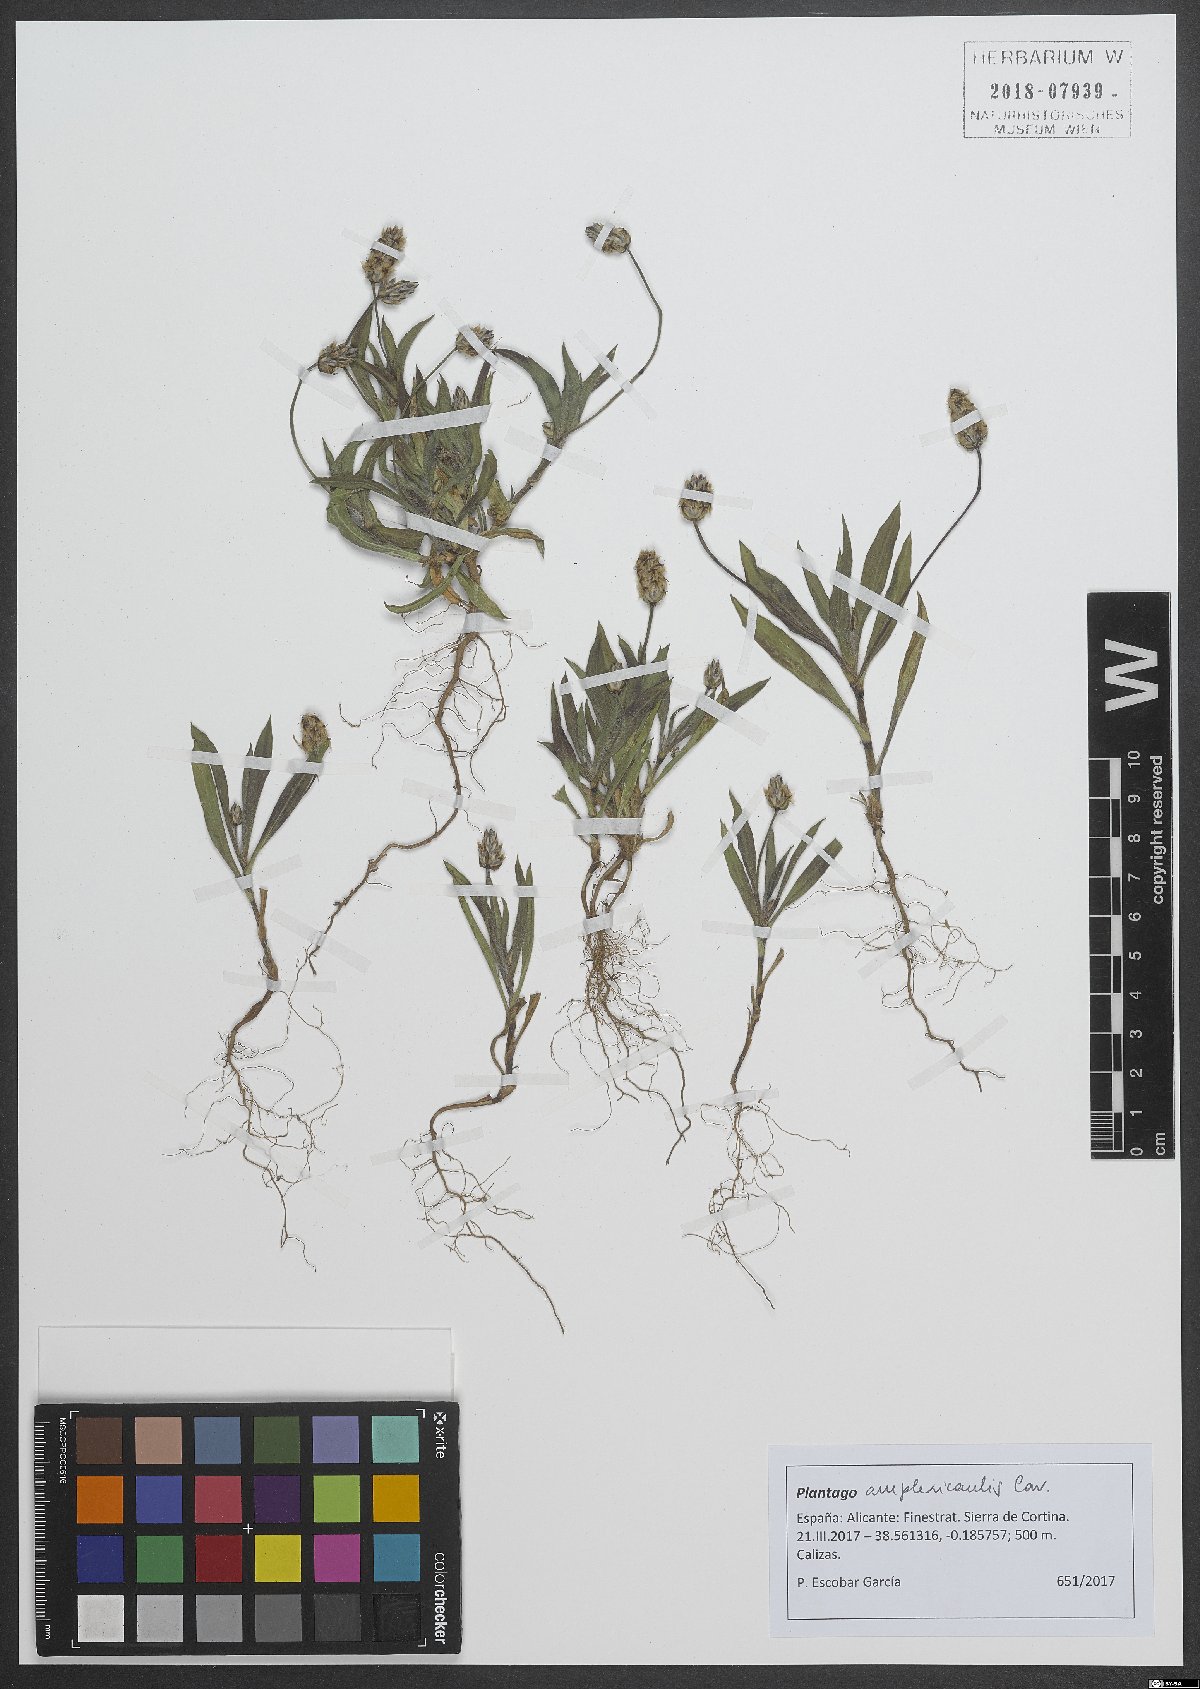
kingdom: Plantae
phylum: Tracheophyta
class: Magnoliopsida
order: Lamiales
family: Plantaginaceae
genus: Plantago
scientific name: Plantago amplexicaulis
